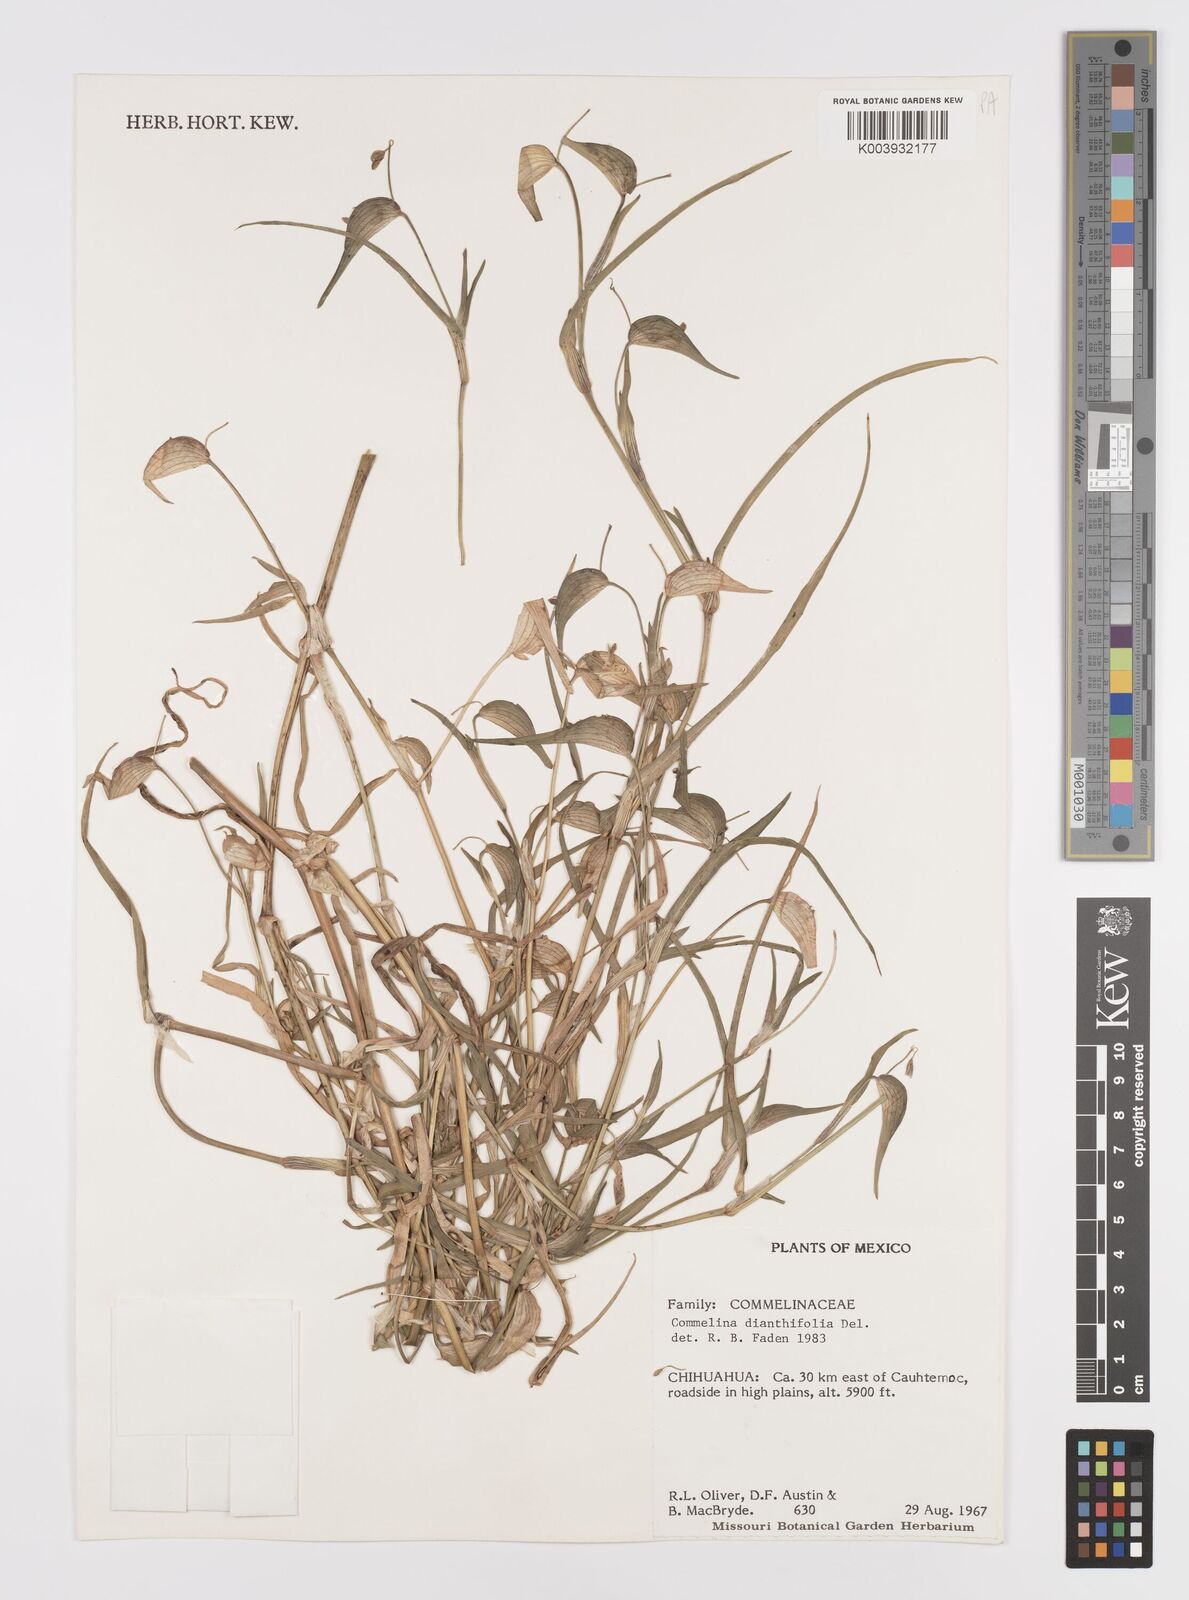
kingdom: Plantae
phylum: Tracheophyta
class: Liliopsida
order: Commelinales
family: Commelinaceae
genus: Commelina
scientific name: Commelina dianthifolia
